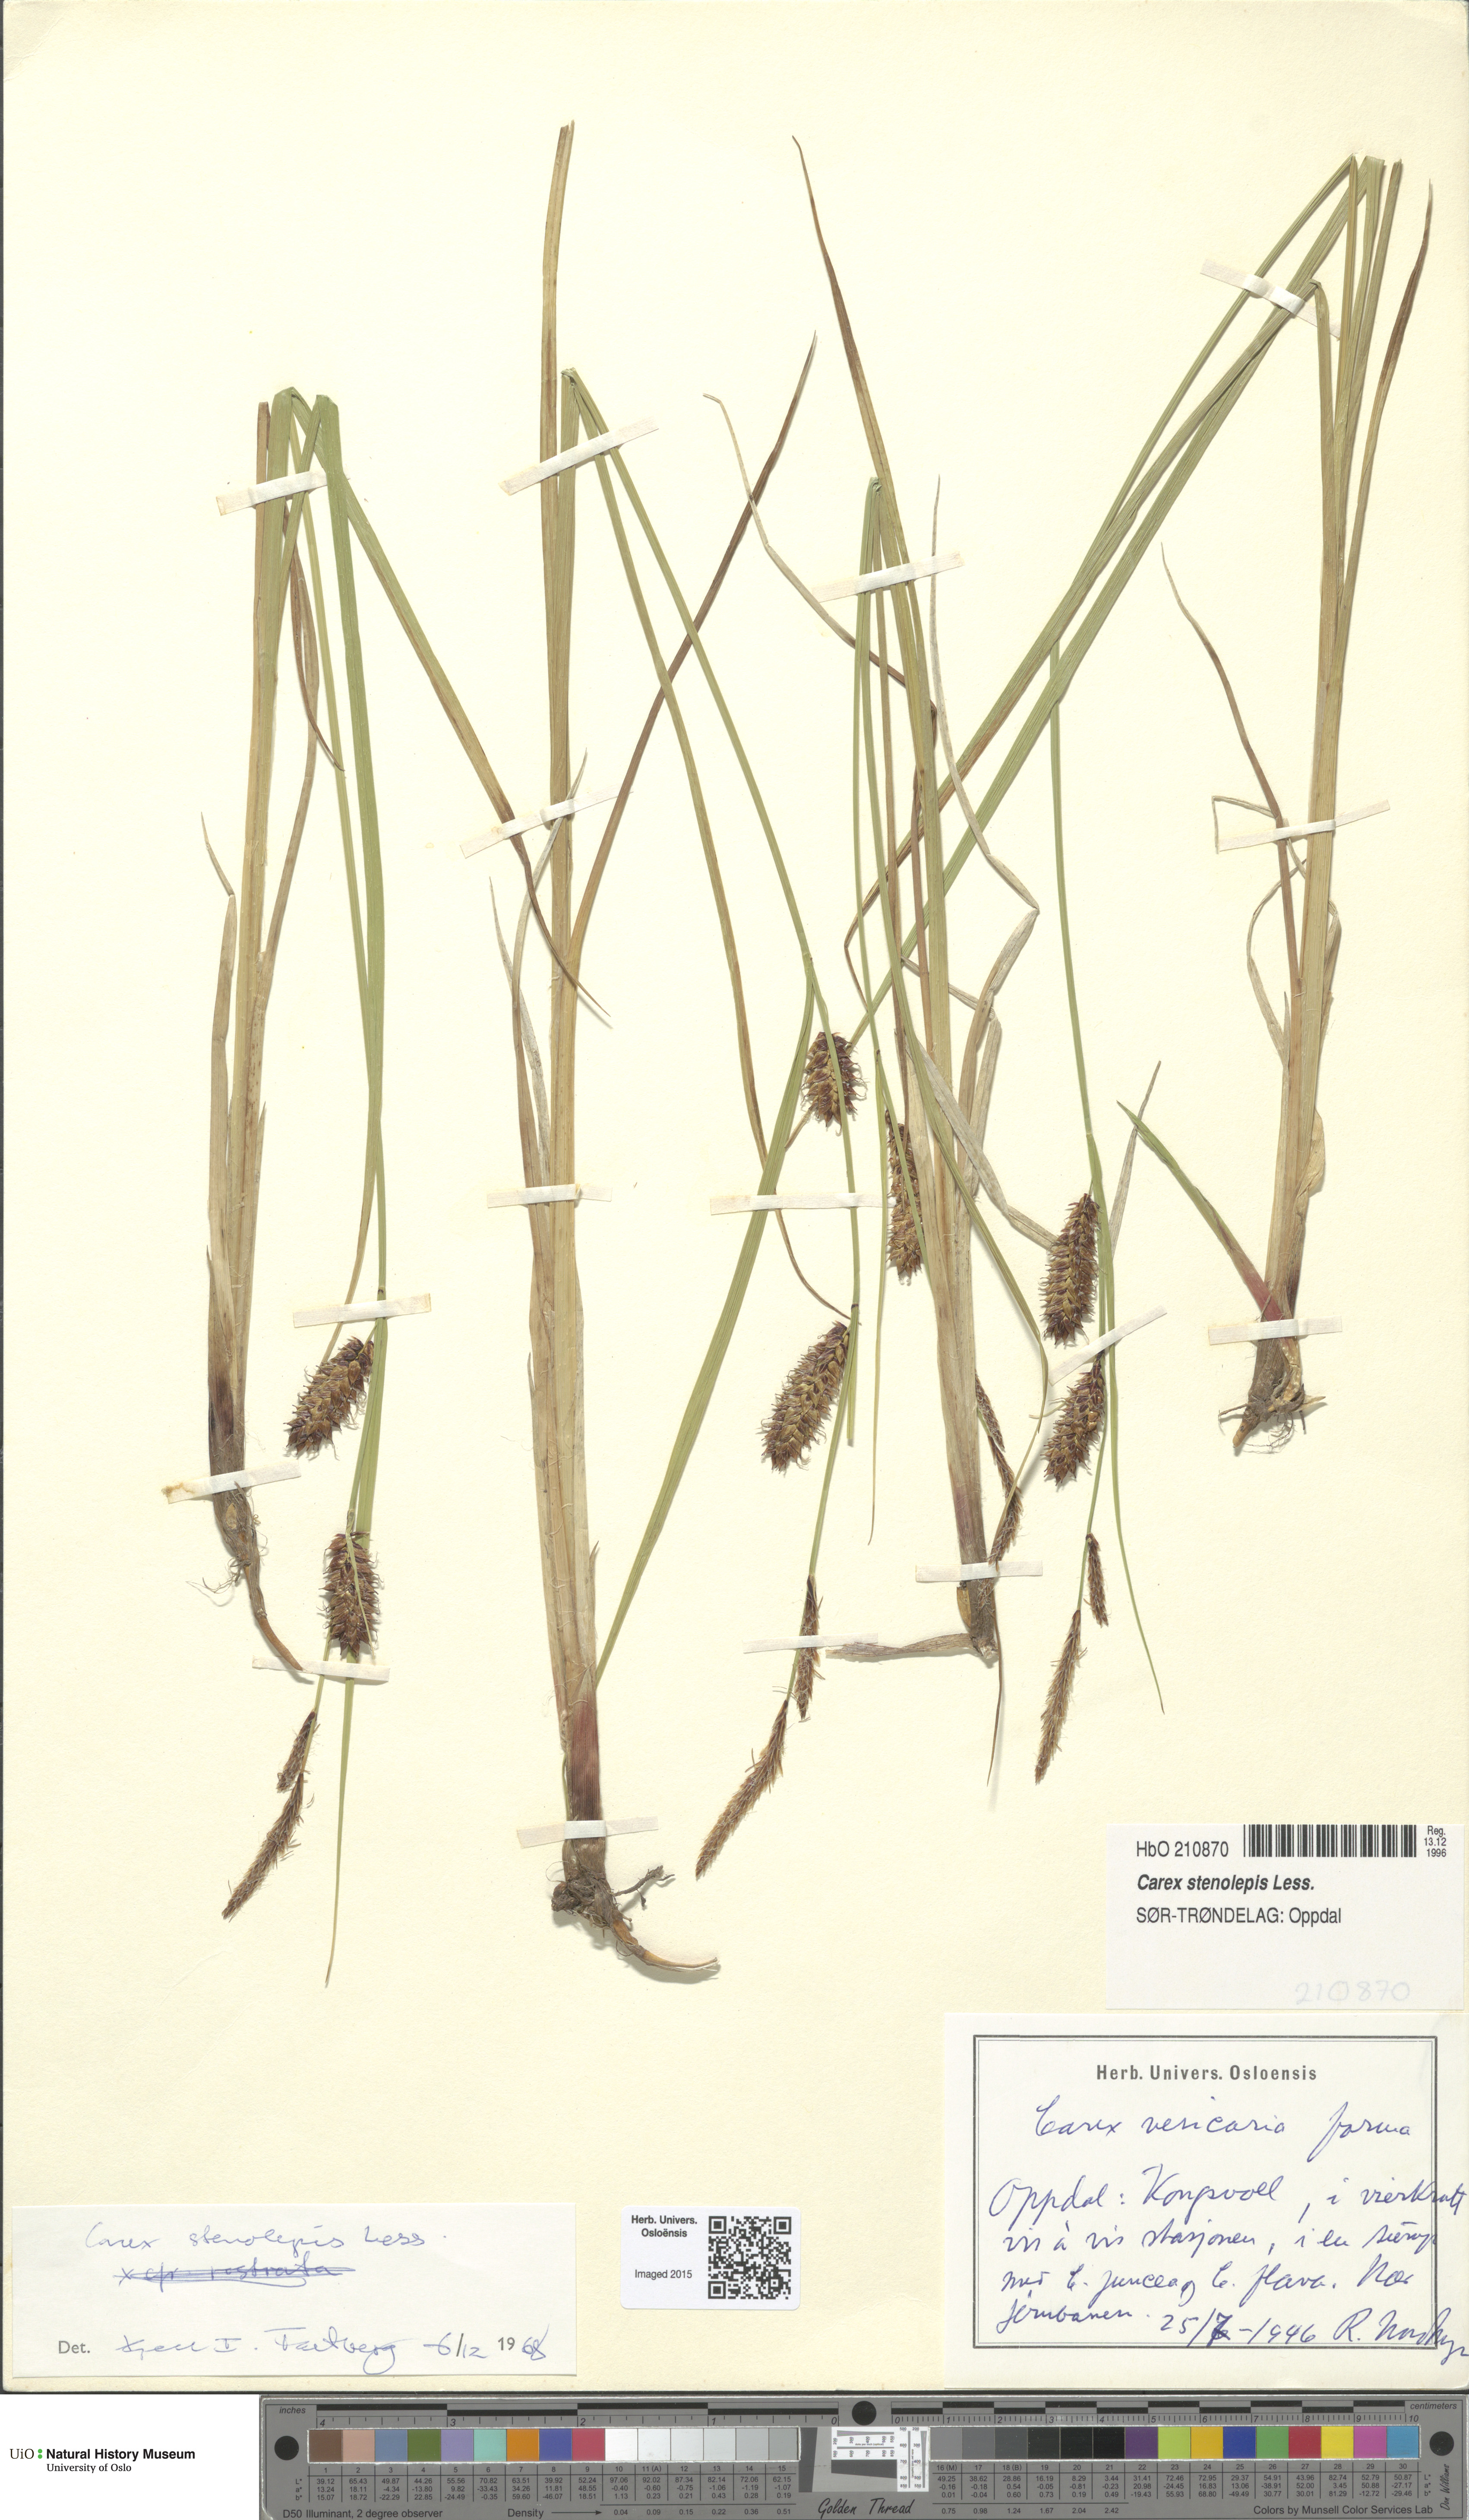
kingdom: Plantae
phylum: Tracheophyta
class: Liliopsida
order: Poales
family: Cyperaceae
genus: Carex
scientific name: Carex grahamii
